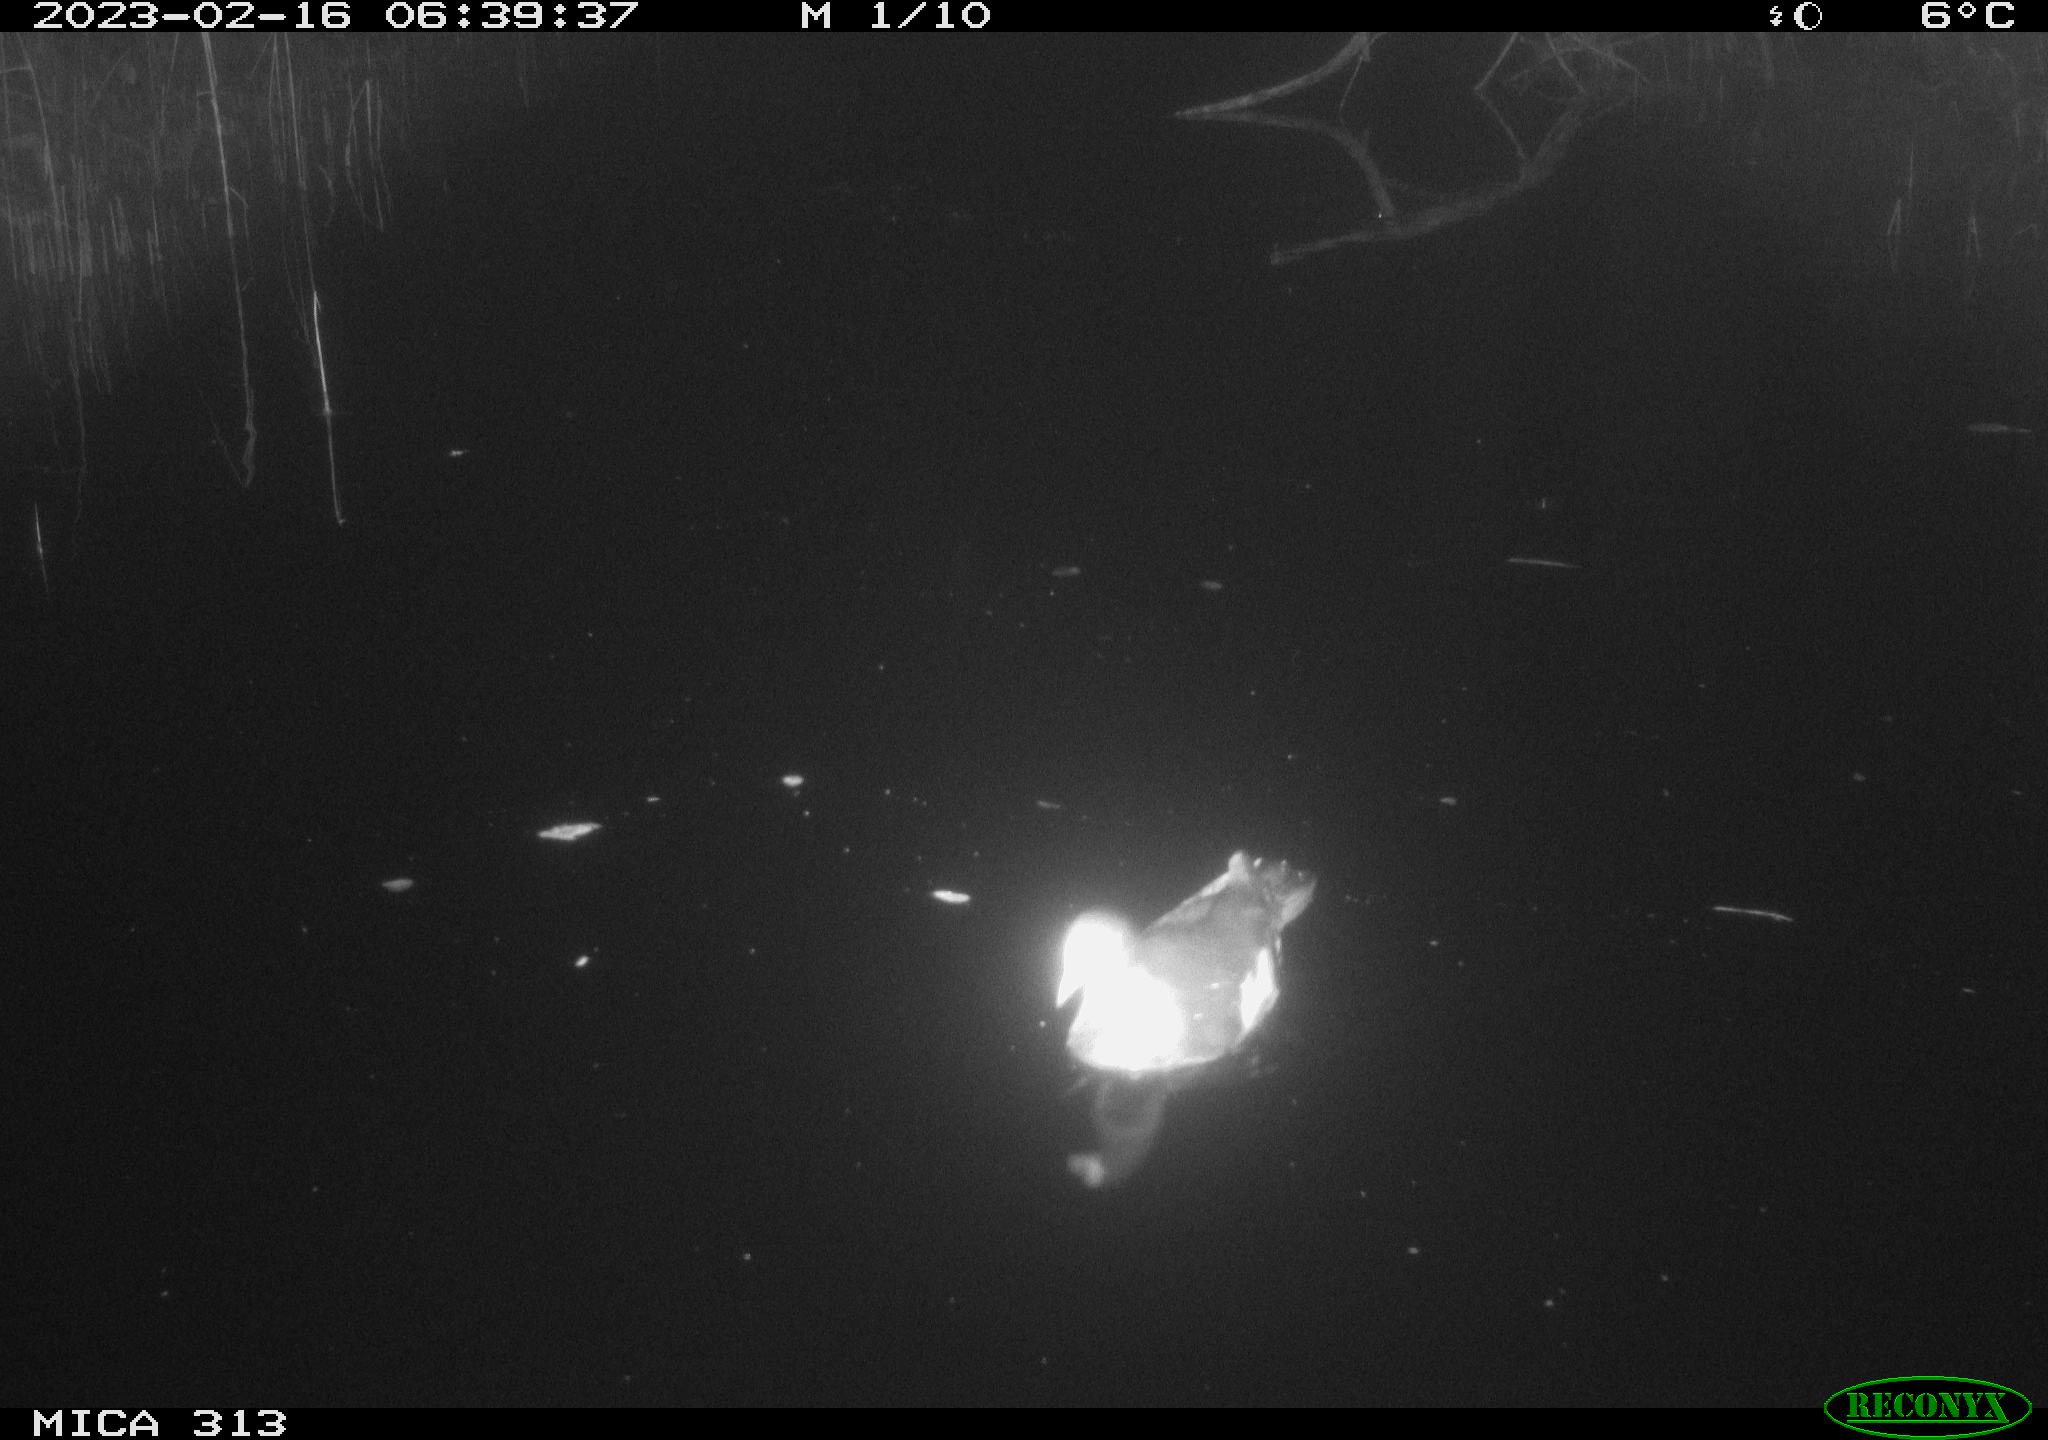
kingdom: Animalia
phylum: Chordata
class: Aves
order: Gruiformes
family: Rallidae
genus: Gallinula
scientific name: Gallinula chloropus
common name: Common moorhen
